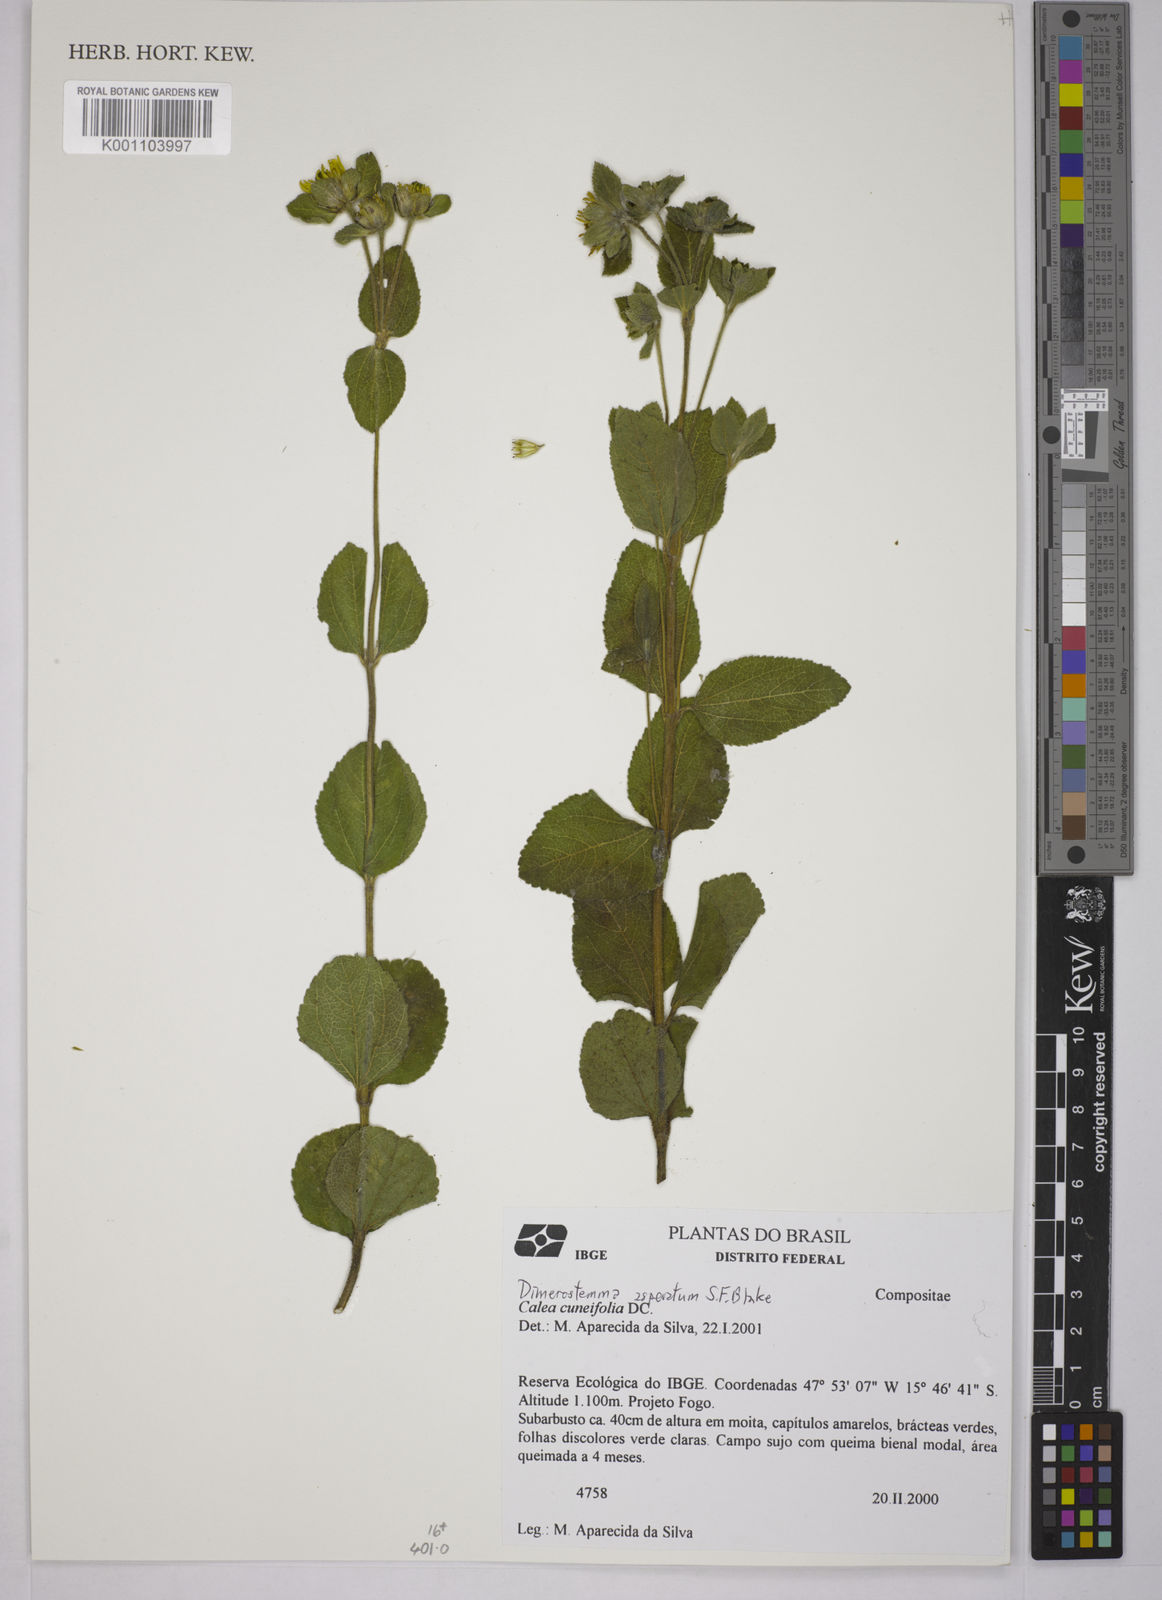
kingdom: Plantae
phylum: Tracheophyta
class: Magnoliopsida
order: Asterales
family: Asteraceae
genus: Dimerostemma
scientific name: Dimerostemma asperatum
